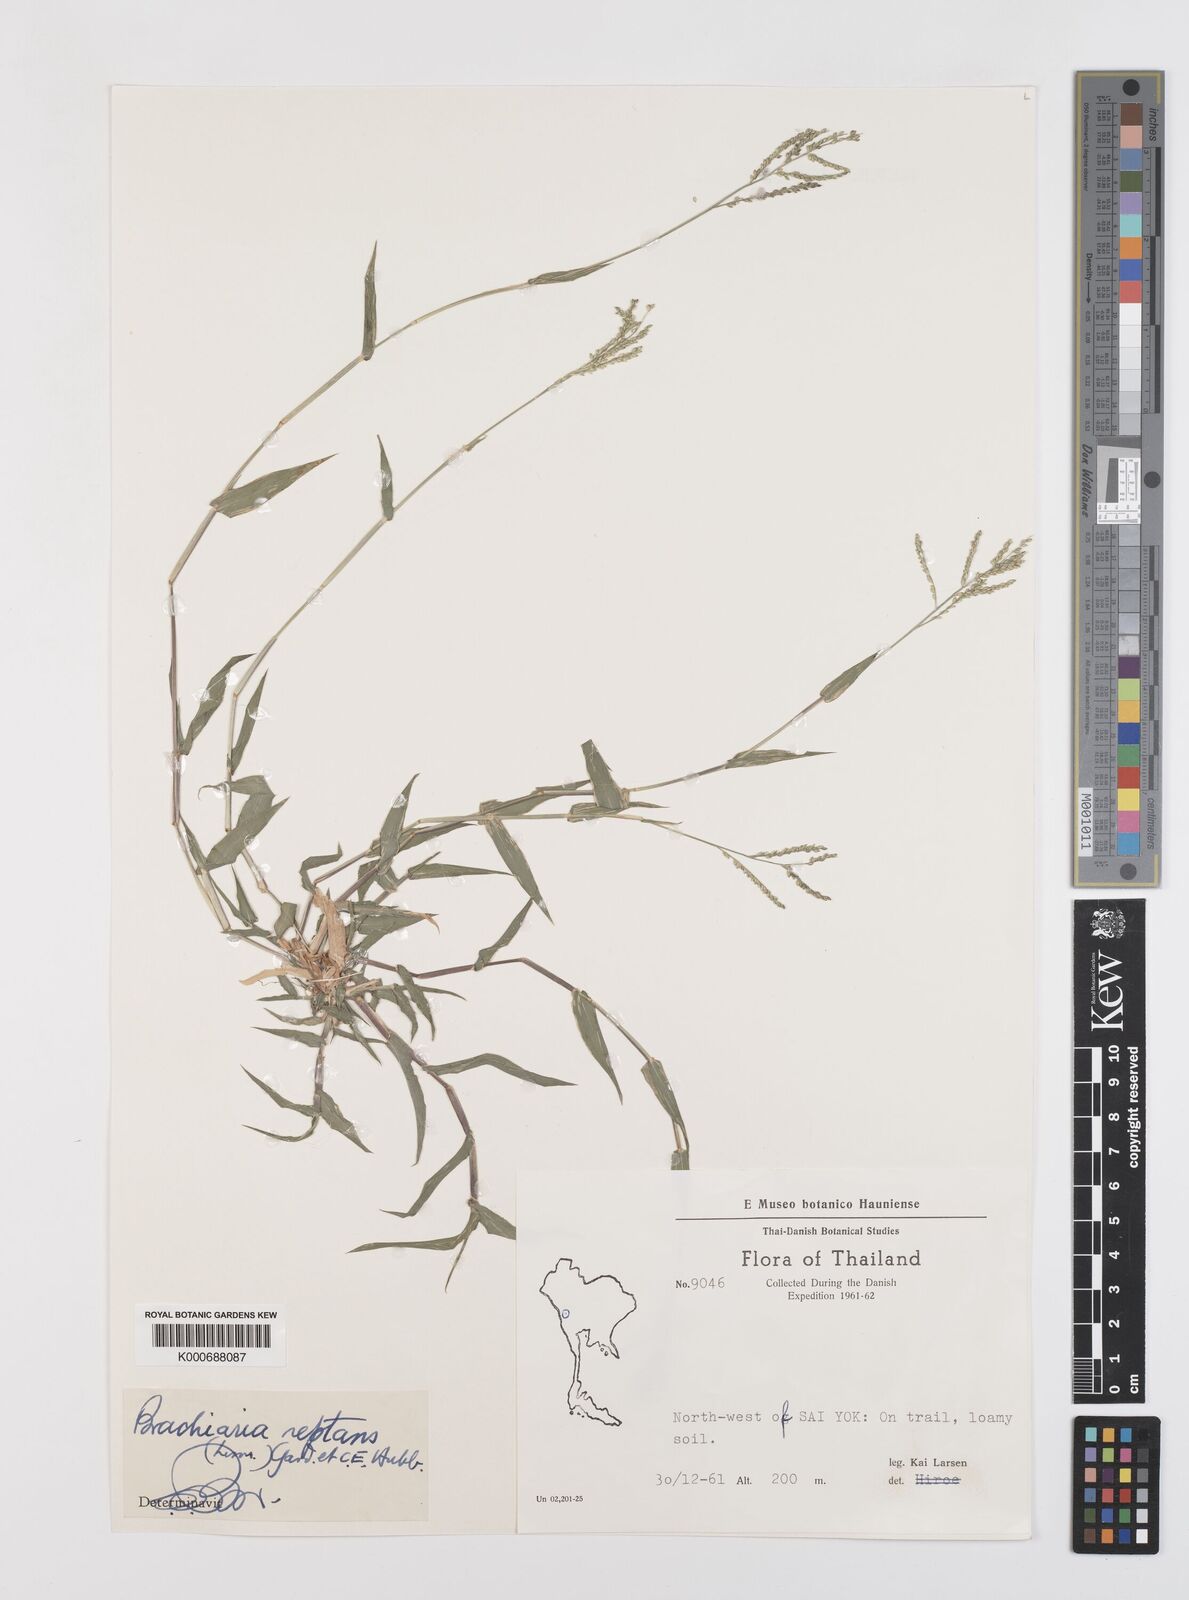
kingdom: Plantae
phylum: Tracheophyta
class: Liliopsida
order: Poales
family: Poaceae
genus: Urochloa
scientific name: Urochloa reptans
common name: Sprawling signalgrass
